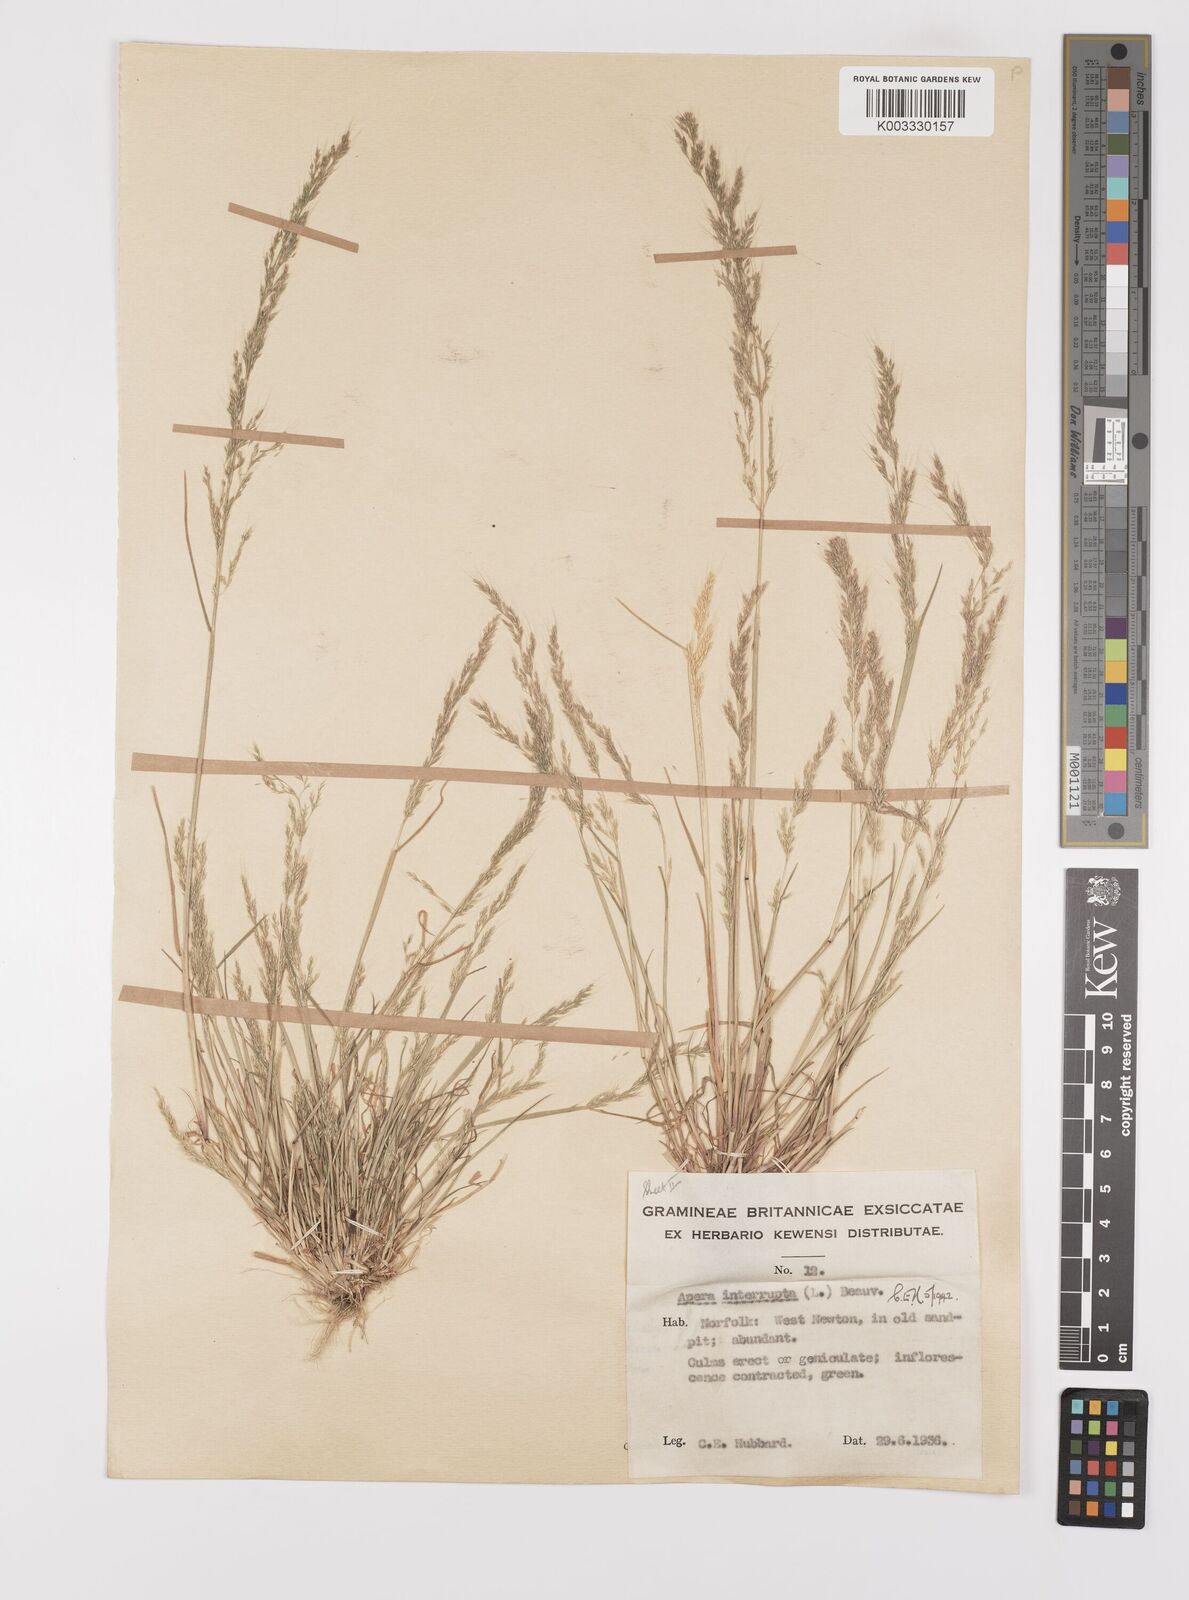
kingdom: Plantae
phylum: Tracheophyta
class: Liliopsida
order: Poales
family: Poaceae
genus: Apera
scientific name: Apera interrupta
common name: Dense silky-bent
